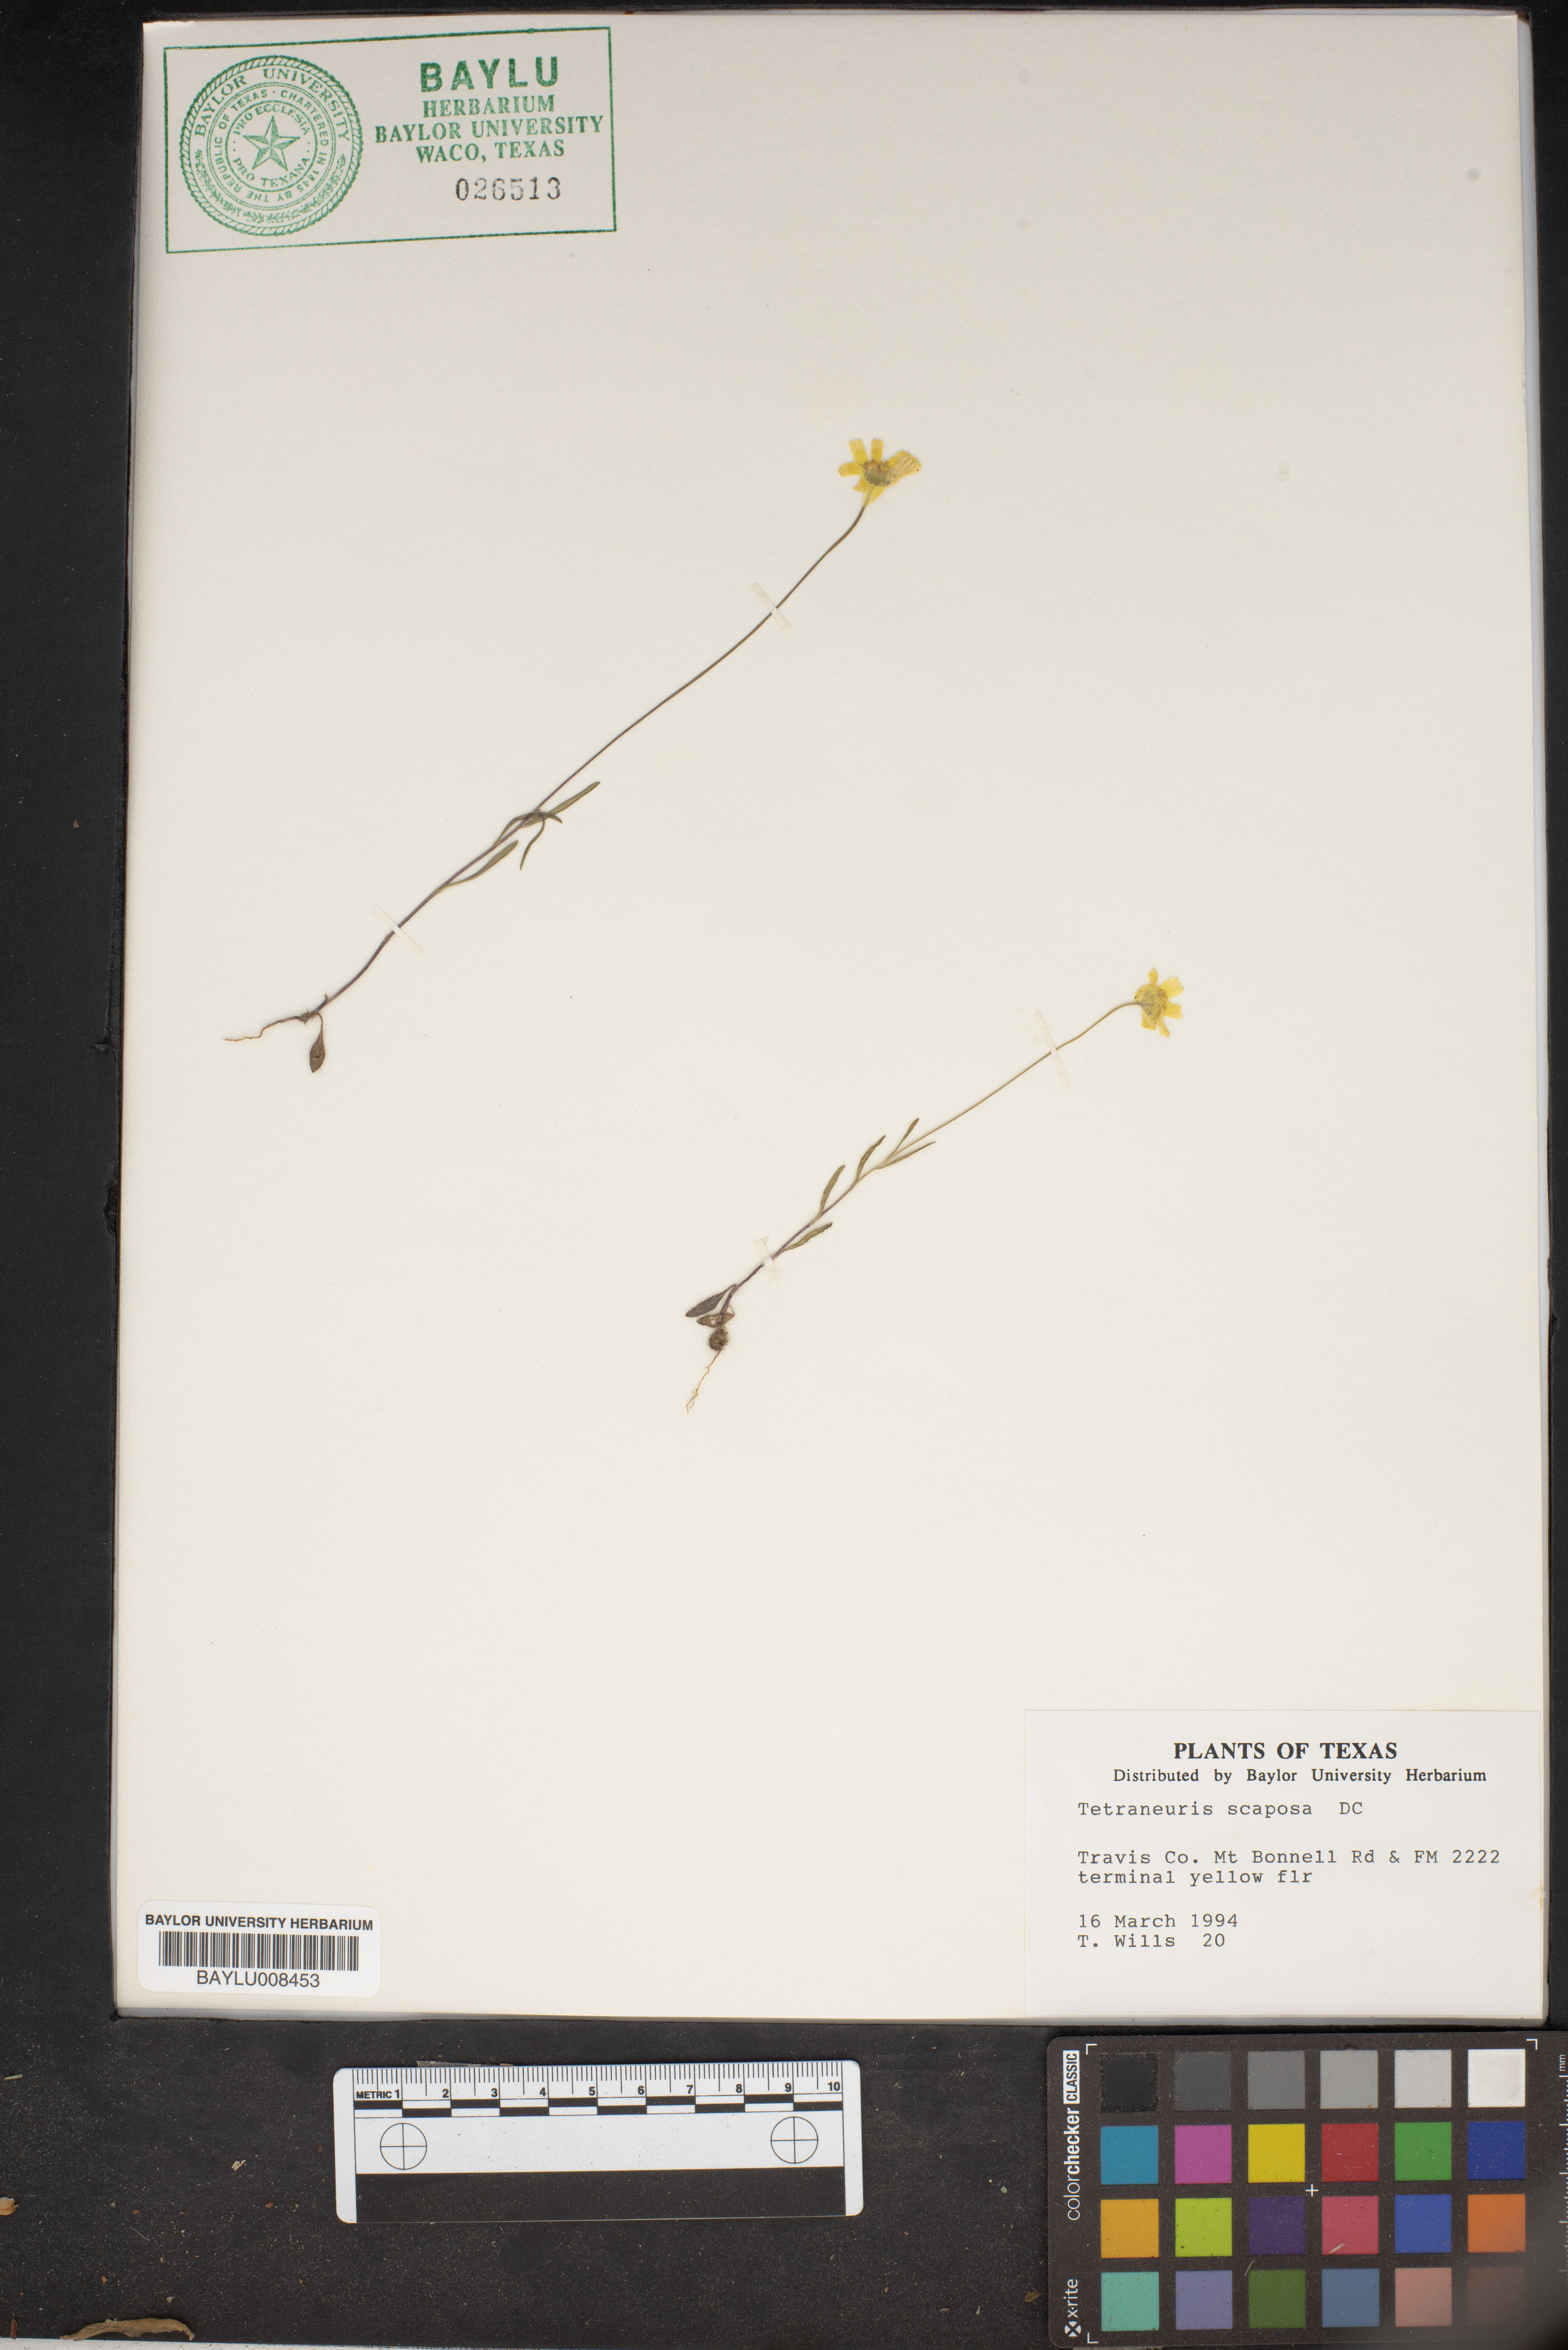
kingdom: Plantae
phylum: Tracheophyta
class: Magnoliopsida
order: Asterales
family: Asteraceae
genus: Tetraneuris
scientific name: Tetraneuris scaposa
